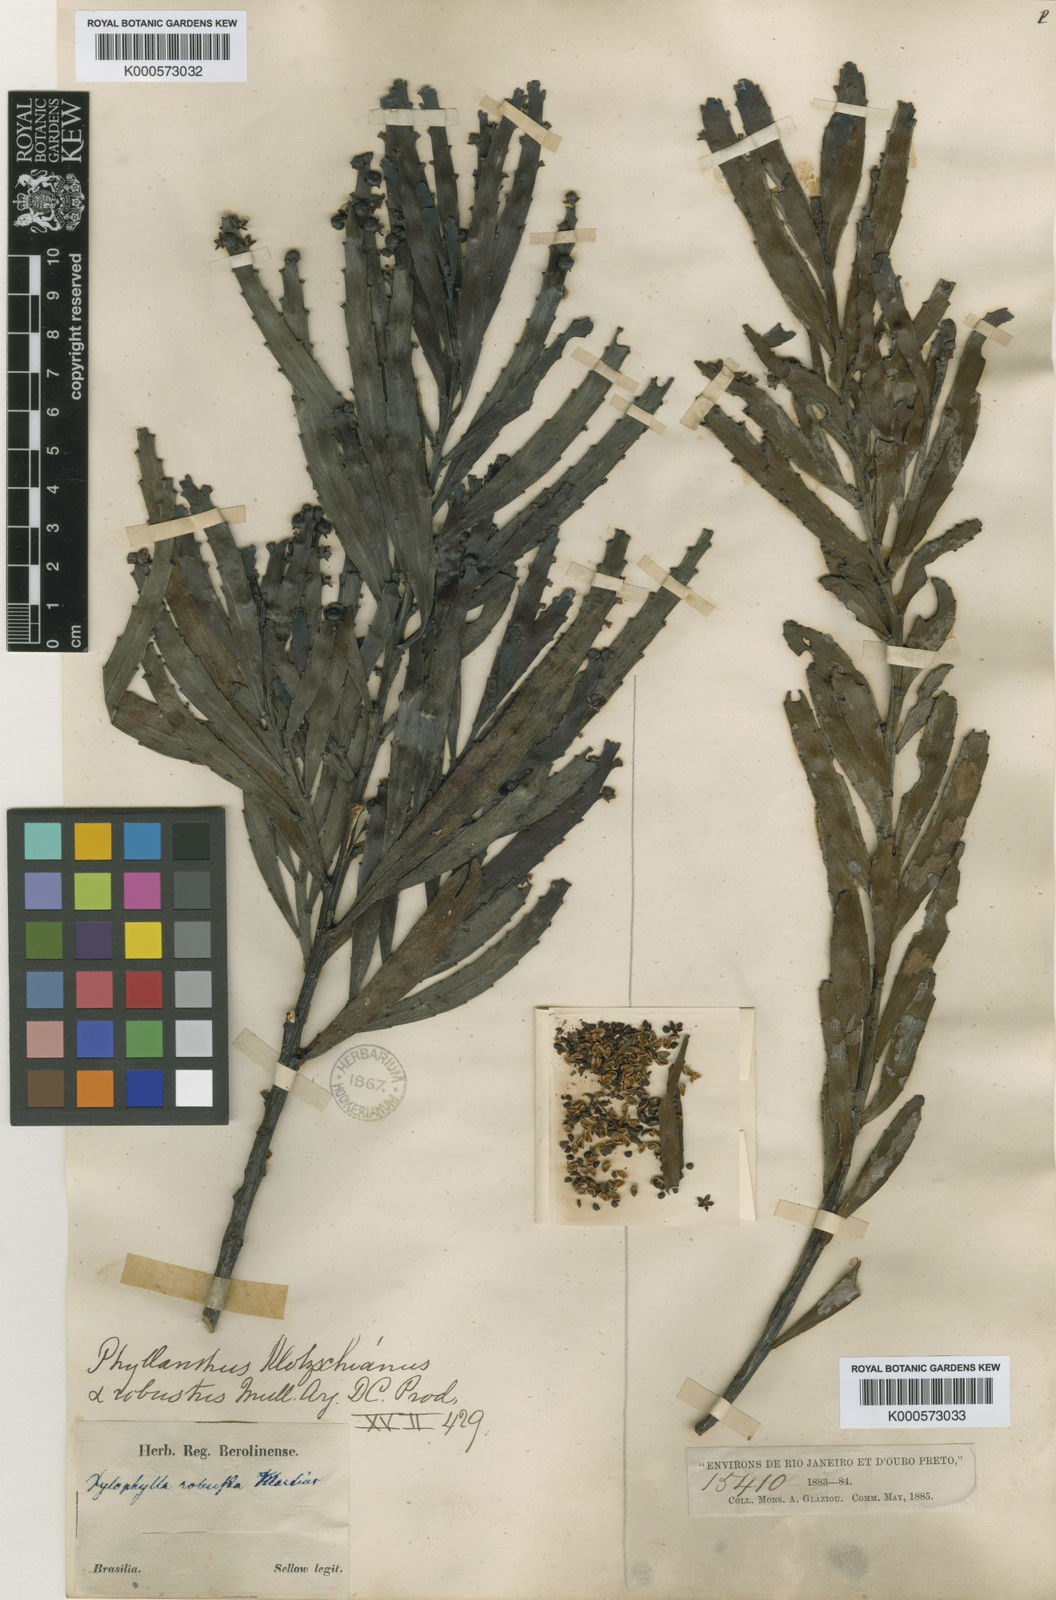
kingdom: Plantae
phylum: Tracheophyta
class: Magnoliopsida
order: Malpighiales
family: Phyllanthaceae
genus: Phyllanthus
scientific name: Phyllanthus
